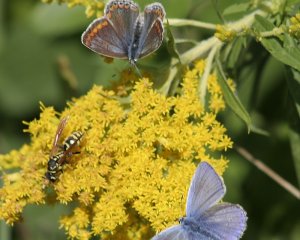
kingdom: Animalia
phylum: Arthropoda
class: Insecta
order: Lepidoptera
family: Lycaenidae
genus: Polyommatus
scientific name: Polyommatus icarus
